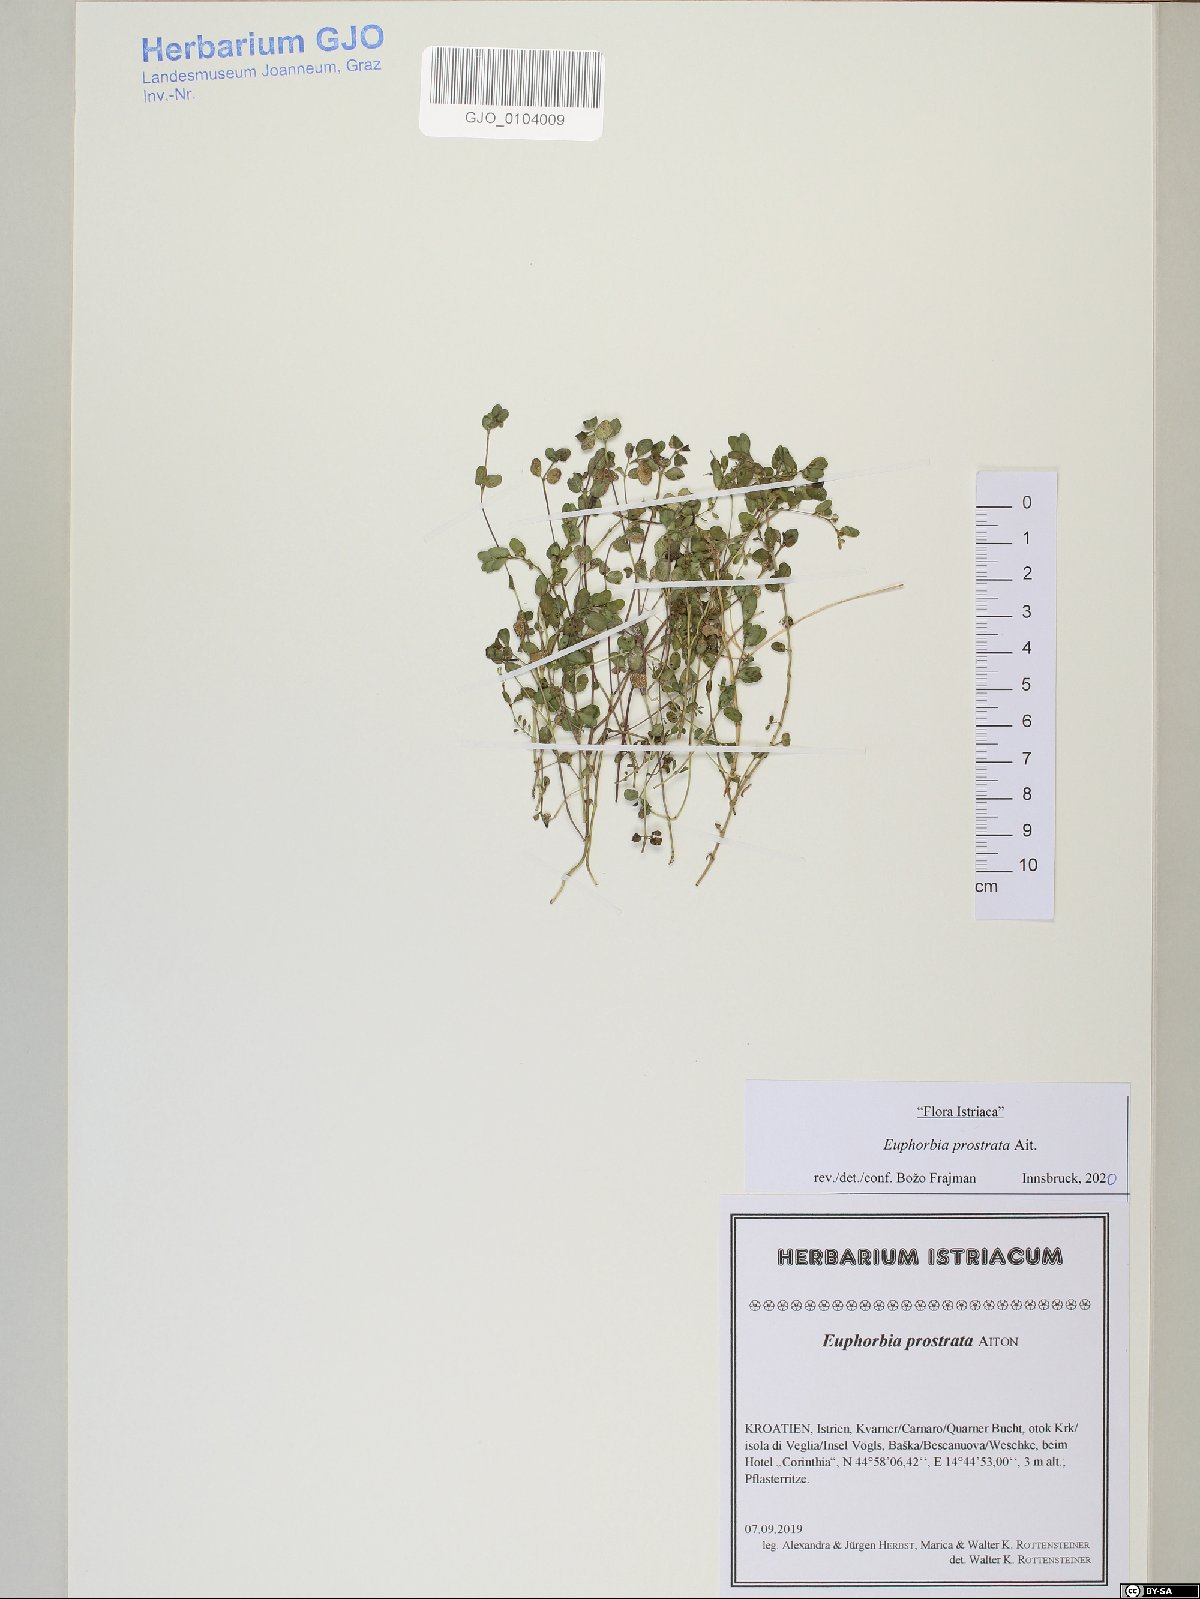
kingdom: Plantae
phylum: Tracheophyta
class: Magnoliopsida
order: Malpighiales
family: Euphorbiaceae
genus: Euphorbia
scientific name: Euphorbia prostrata
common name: Prostrate sandmat
